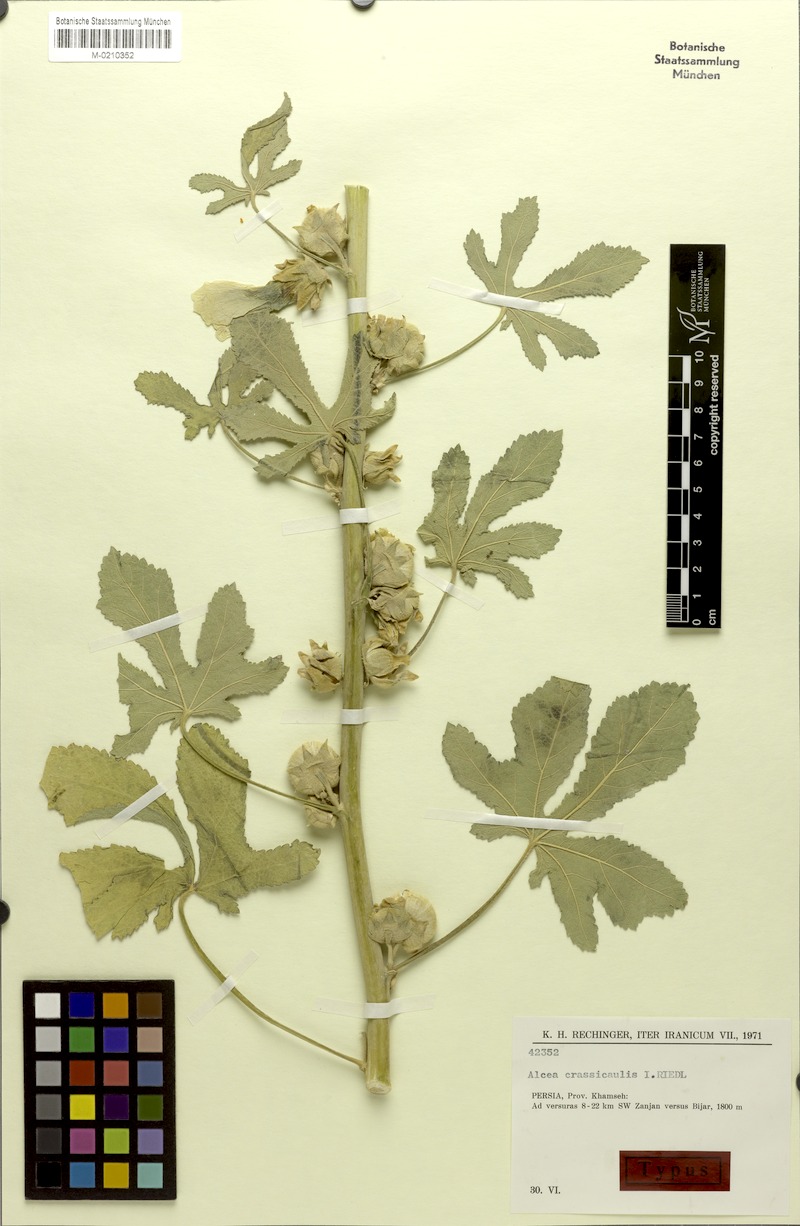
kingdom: Plantae
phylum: Tracheophyta
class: Magnoliopsida
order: Malvales
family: Malvaceae
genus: Alcea
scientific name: Alcea arbelensis
